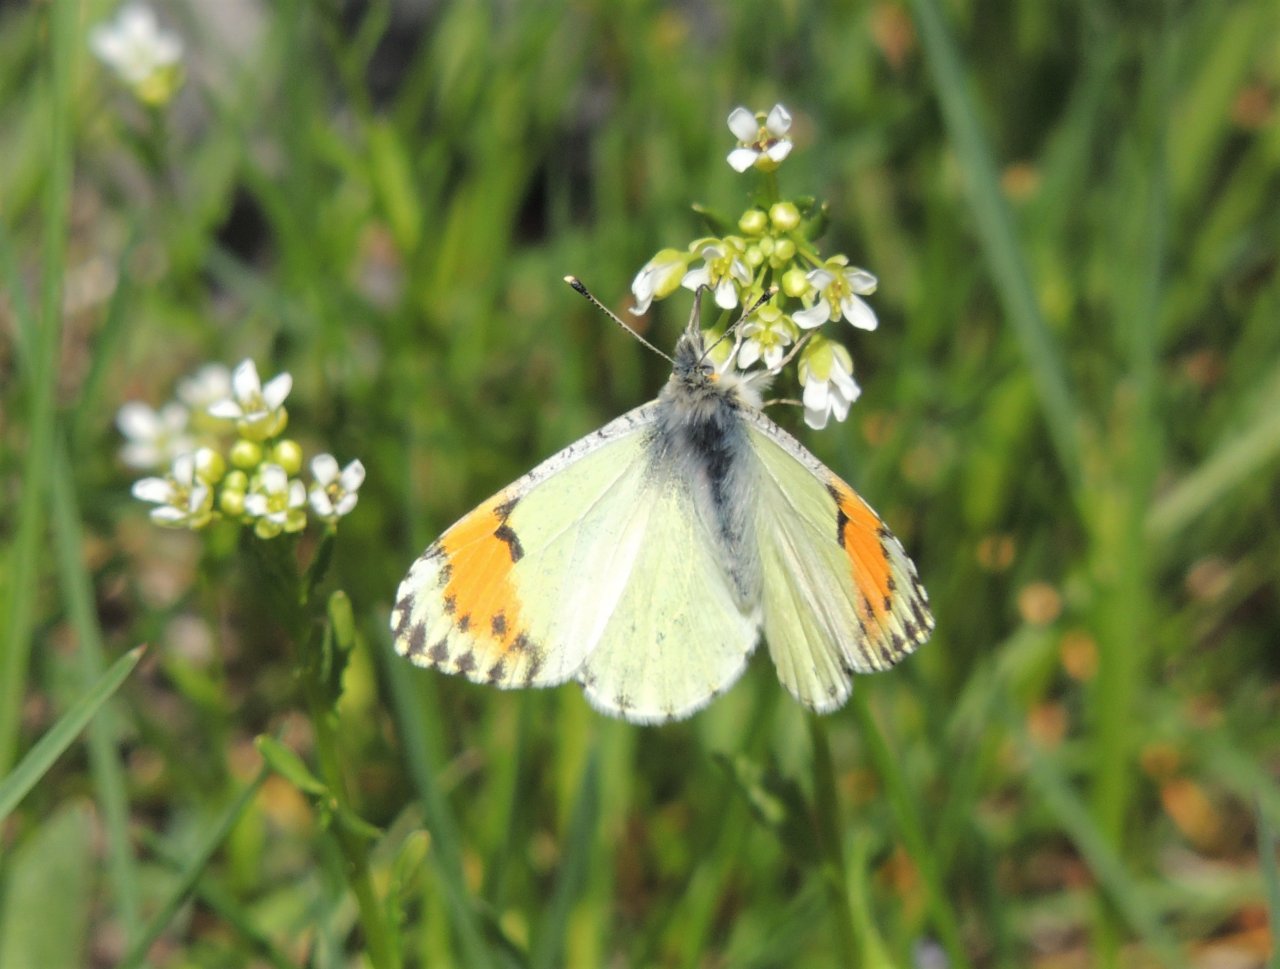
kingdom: Animalia
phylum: Arthropoda
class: Insecta
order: Lepidoptera
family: Pieridae
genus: Anthocharis
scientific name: Anthocharis sara
